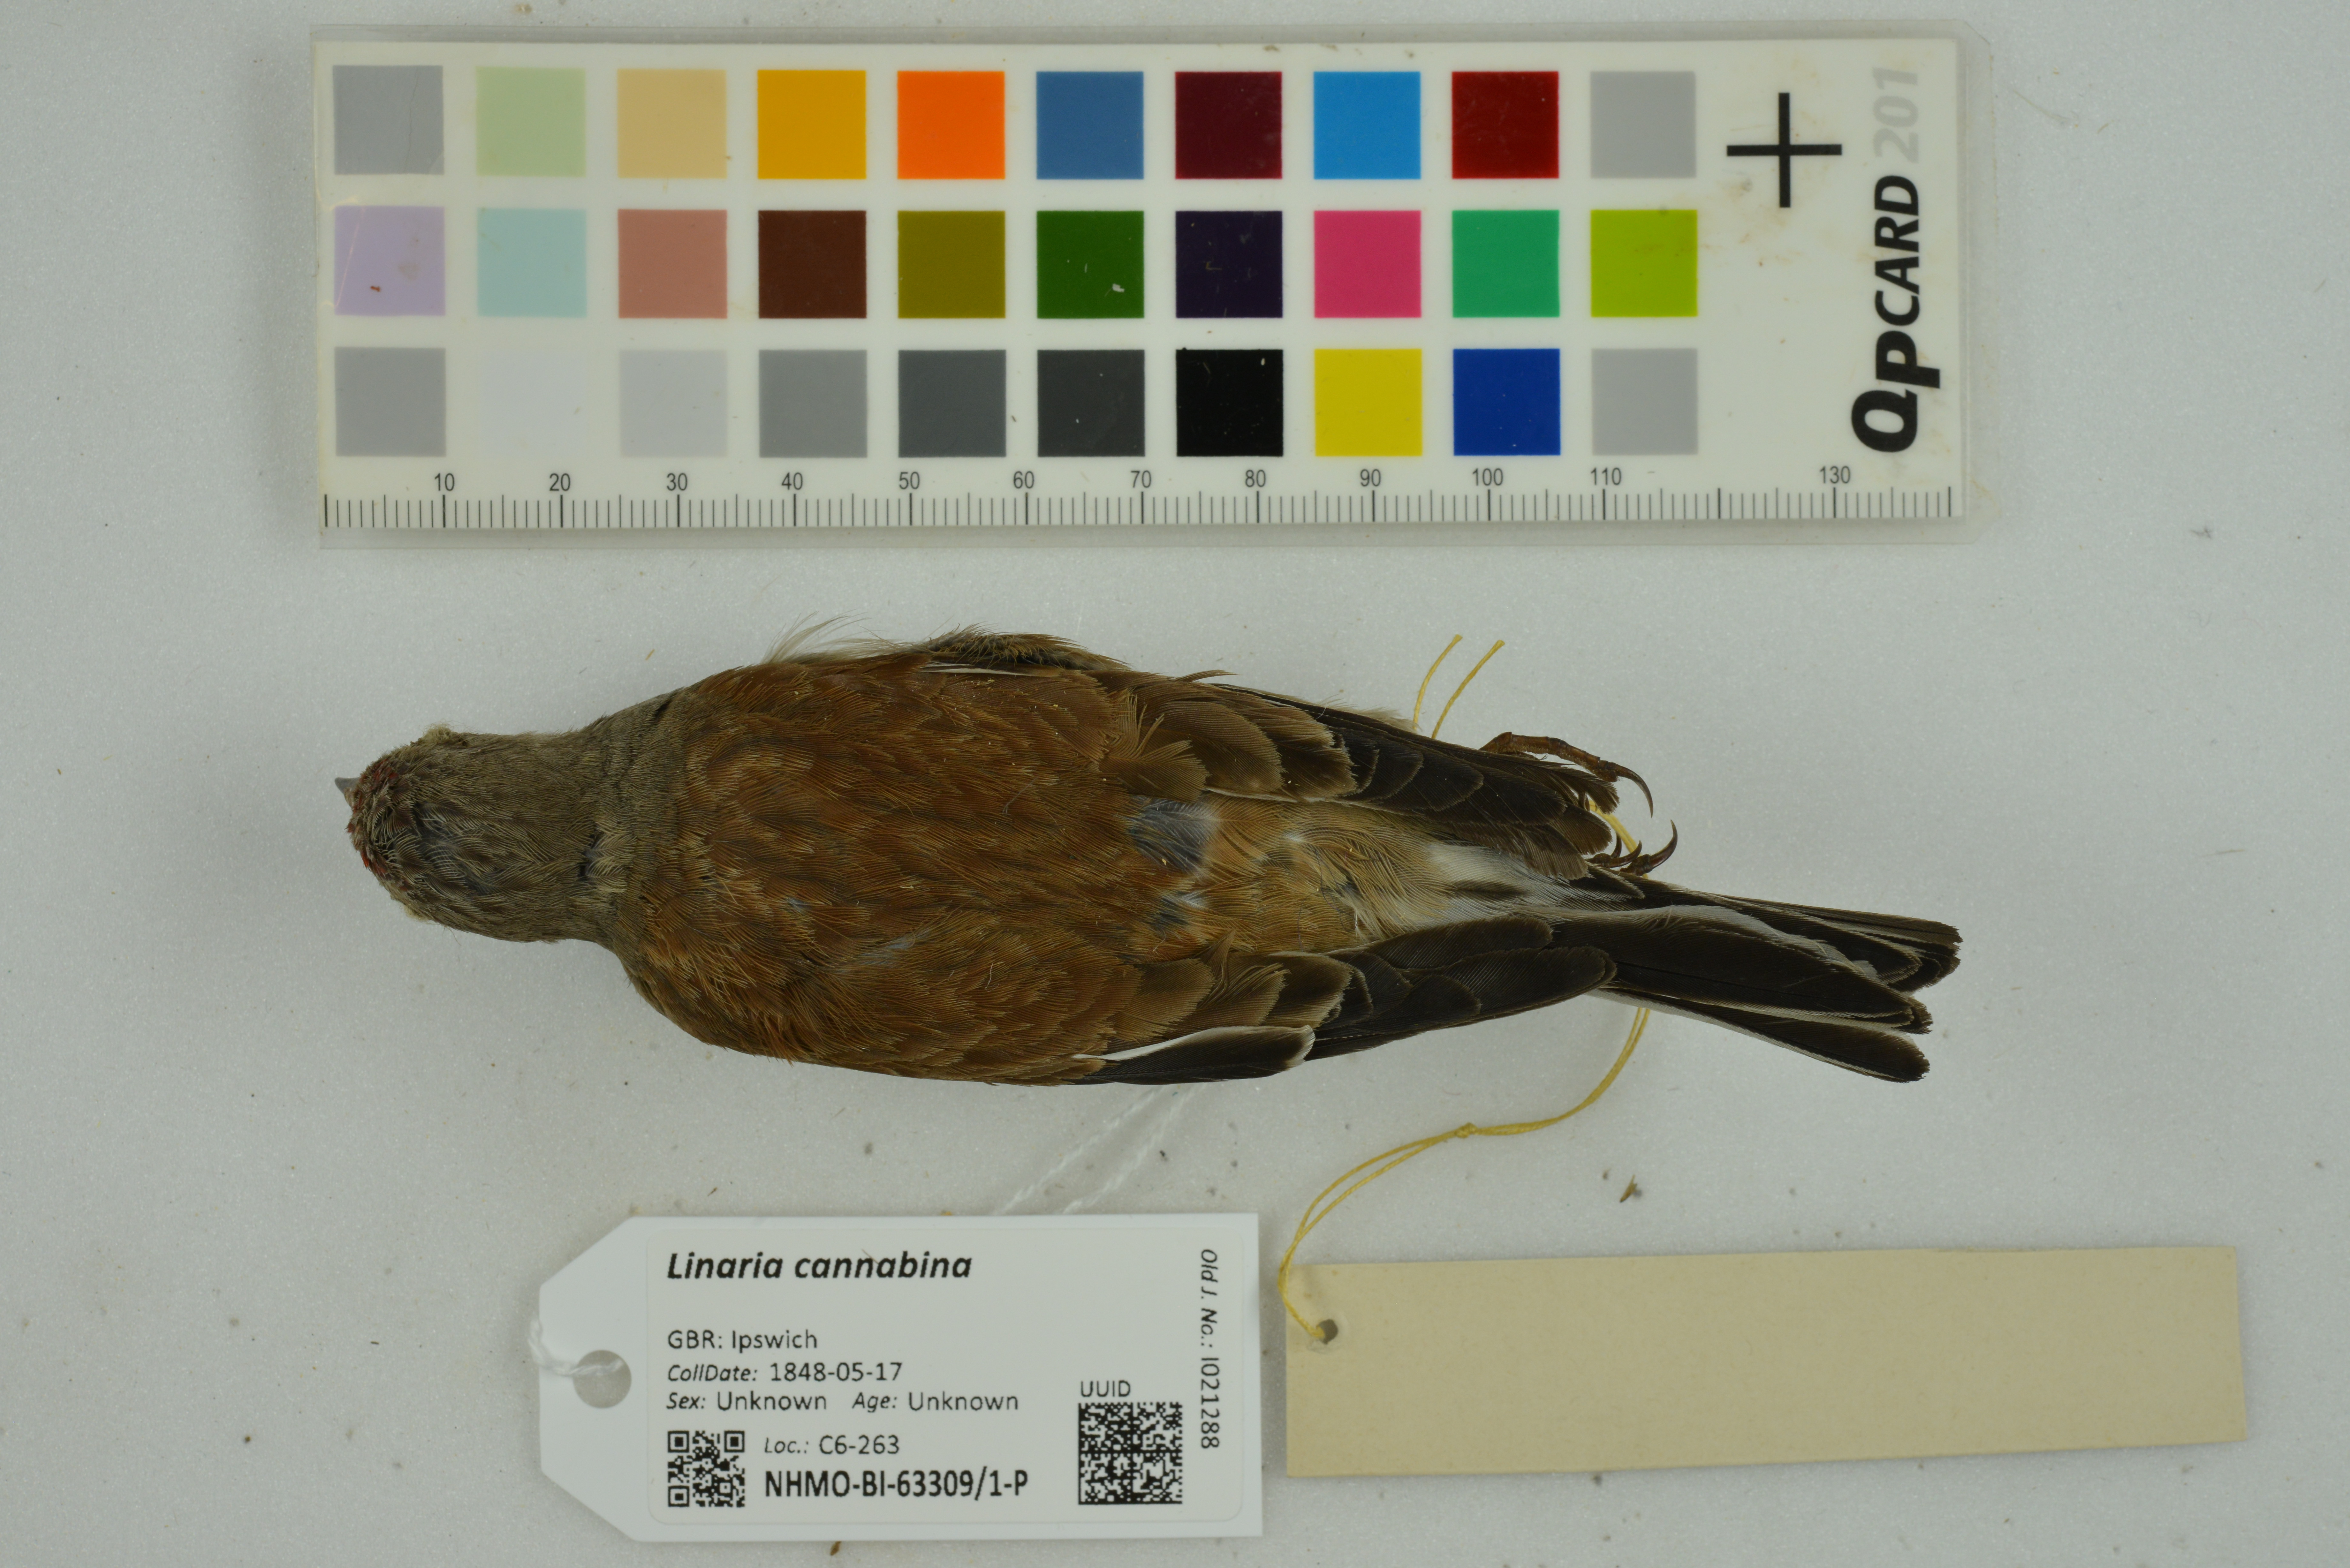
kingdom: Animalia
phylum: Chordata
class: Aves
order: Passeriformes
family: Fringillidae
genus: Linaria
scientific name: Linaria cannabina
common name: Common linnet
